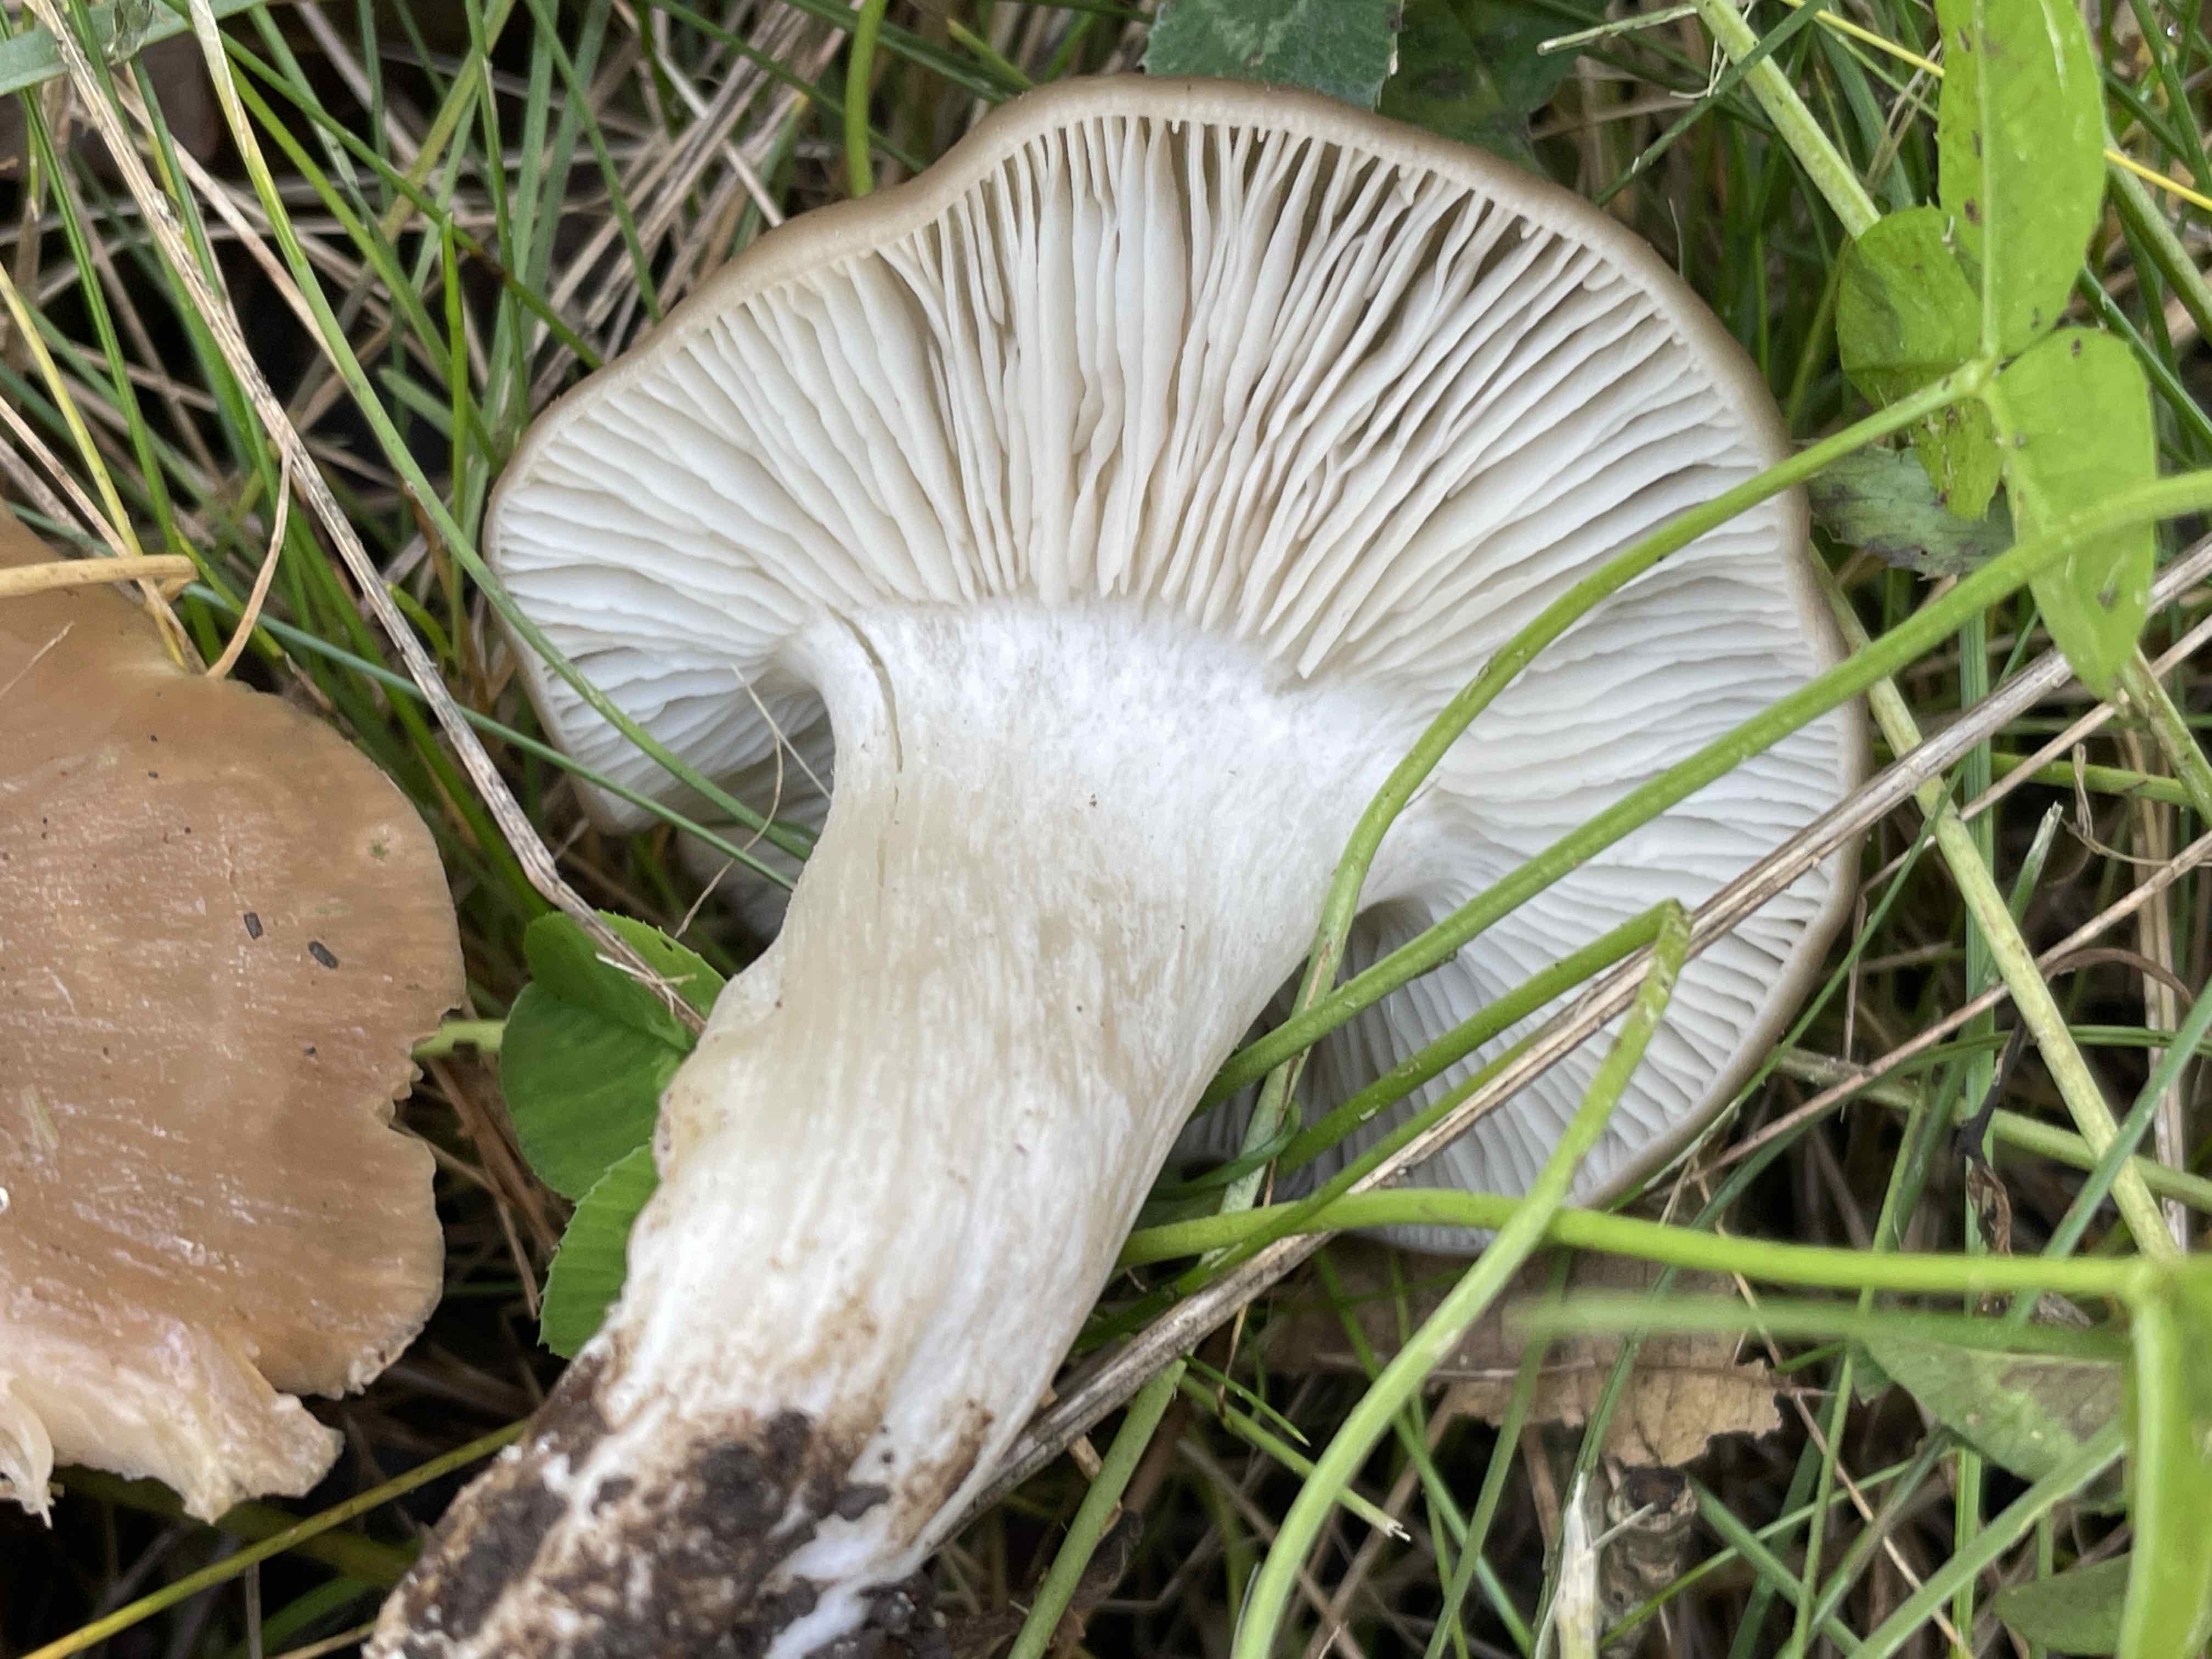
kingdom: Fungi
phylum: Basidiomycota
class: Agaricomycetes
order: Agaricales
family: Entolomataceae
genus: Entoloma
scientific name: Entoloma lividoalbum
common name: lysstokket rødblad
